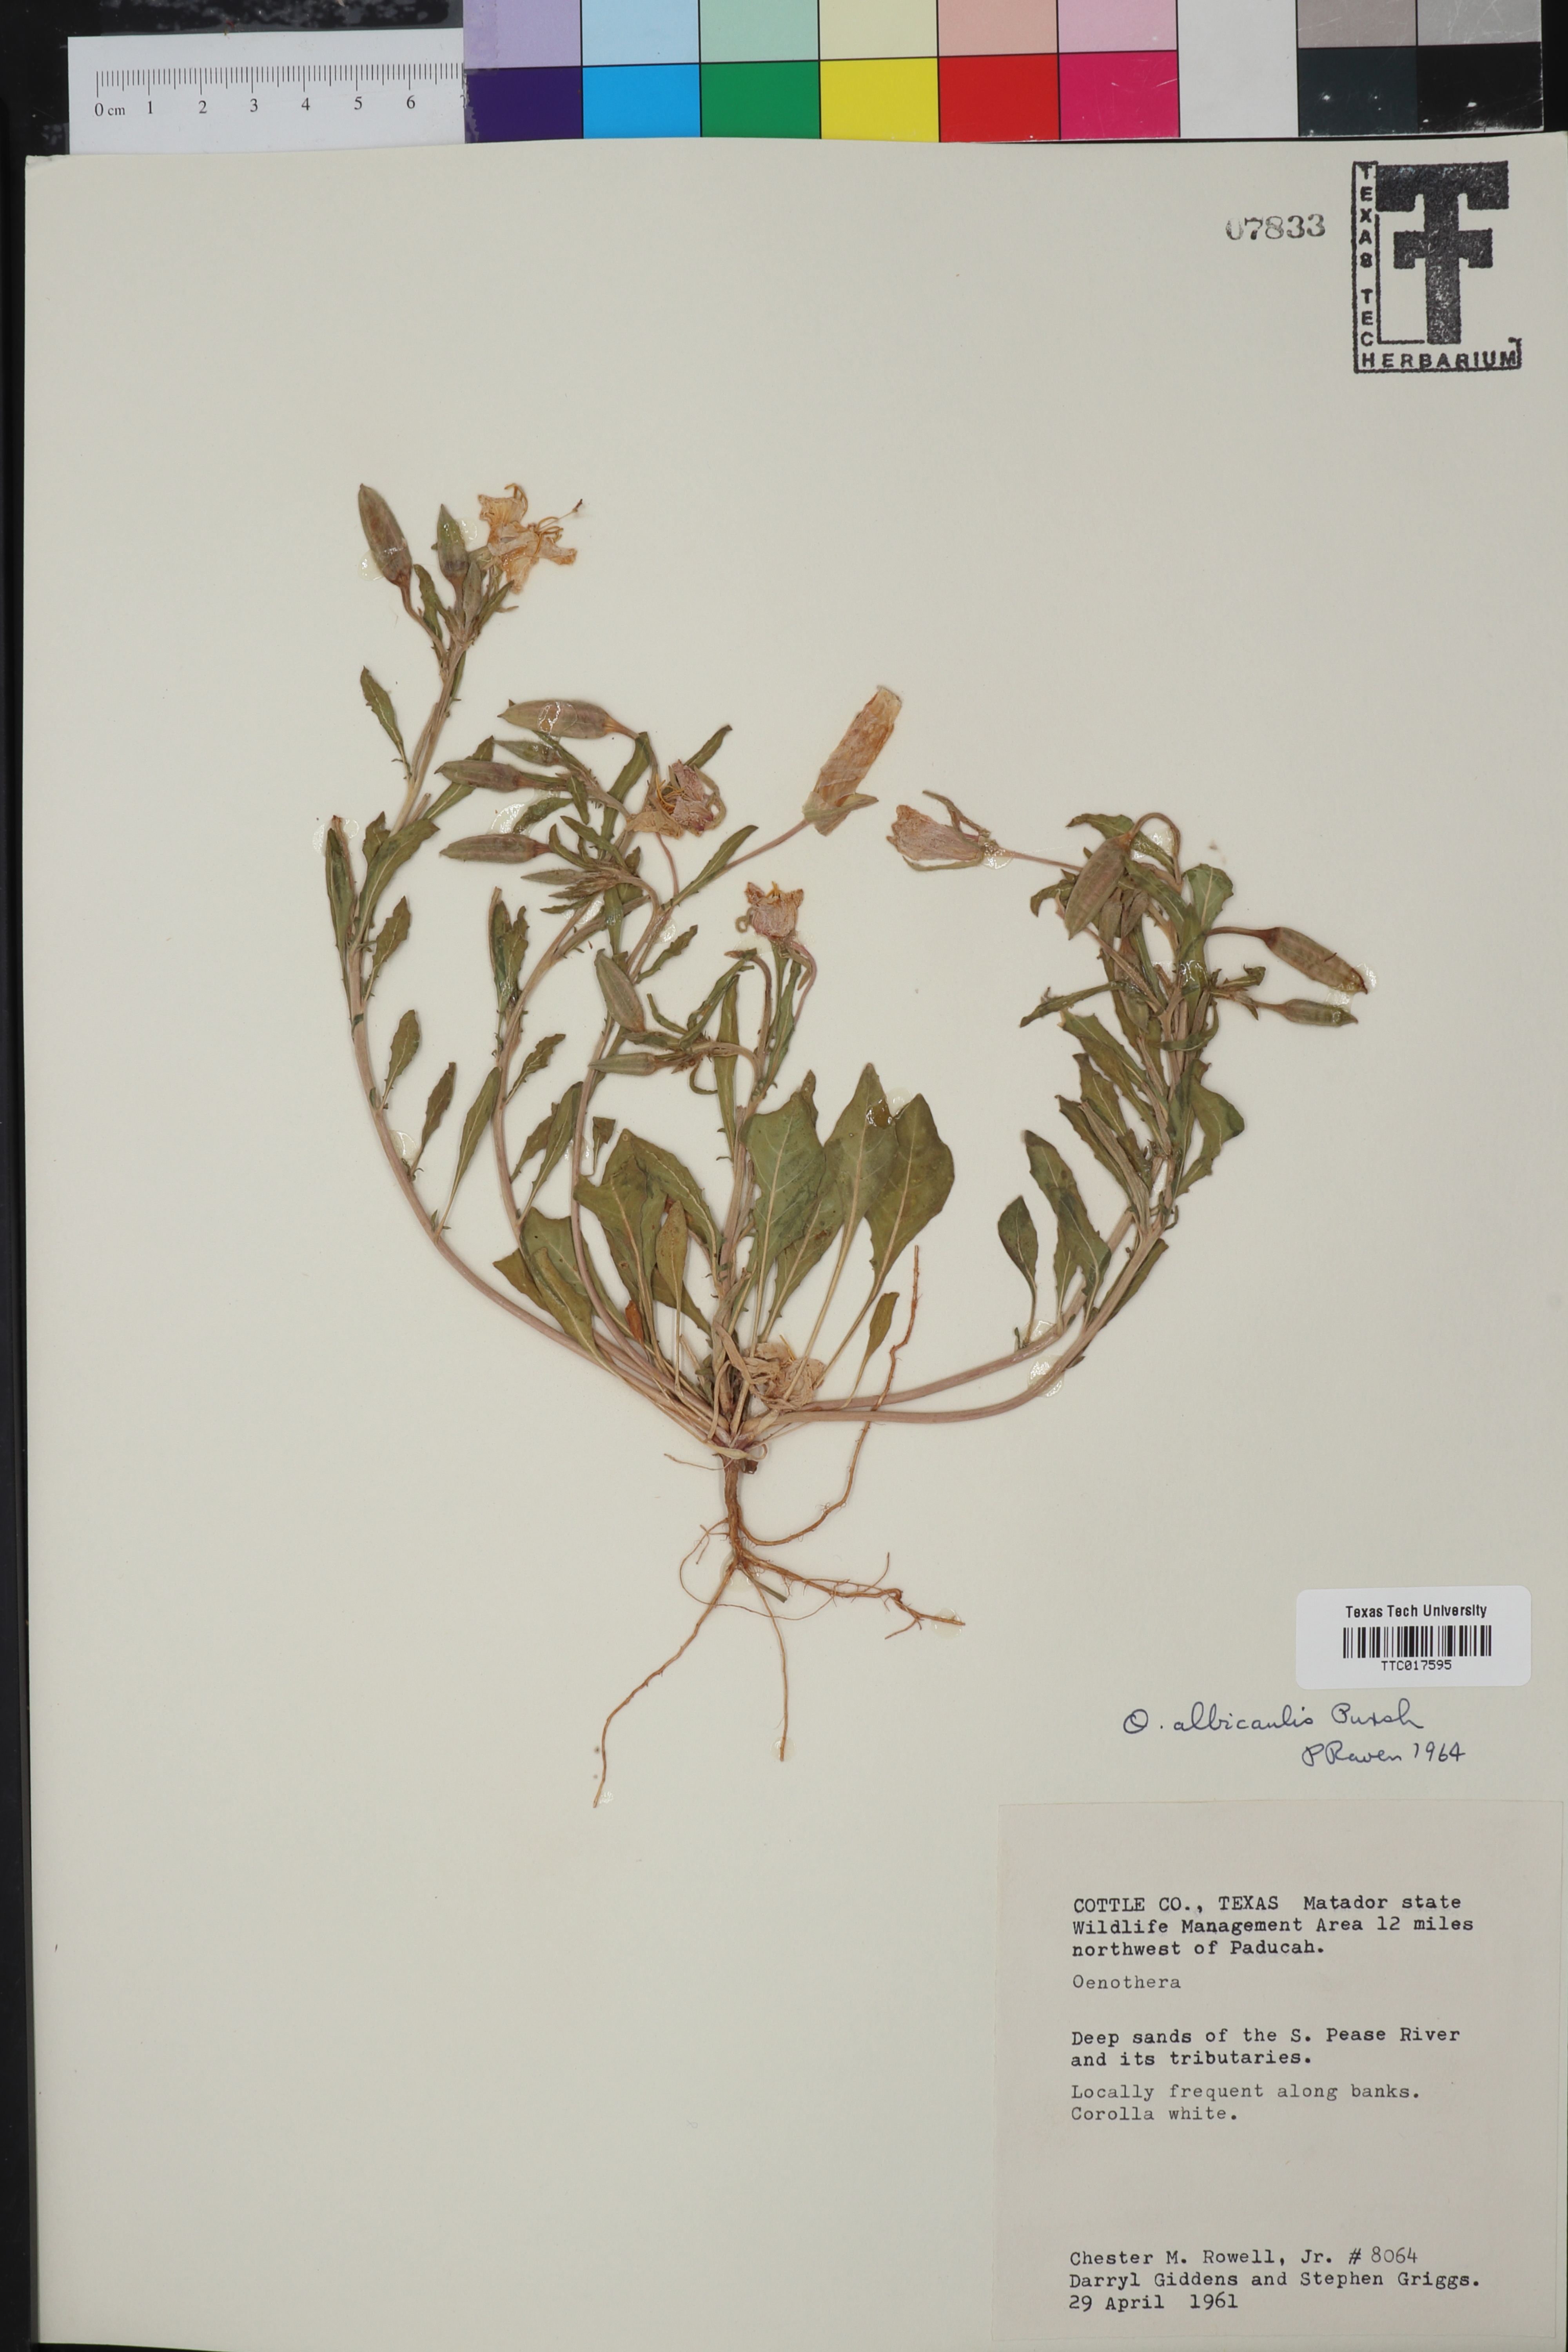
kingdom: Plantae
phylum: Tracheophyta
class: Magnoliopsida
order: Myrtales
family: Onagraceae
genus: Oenothera
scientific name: Oenothera albicaulis
